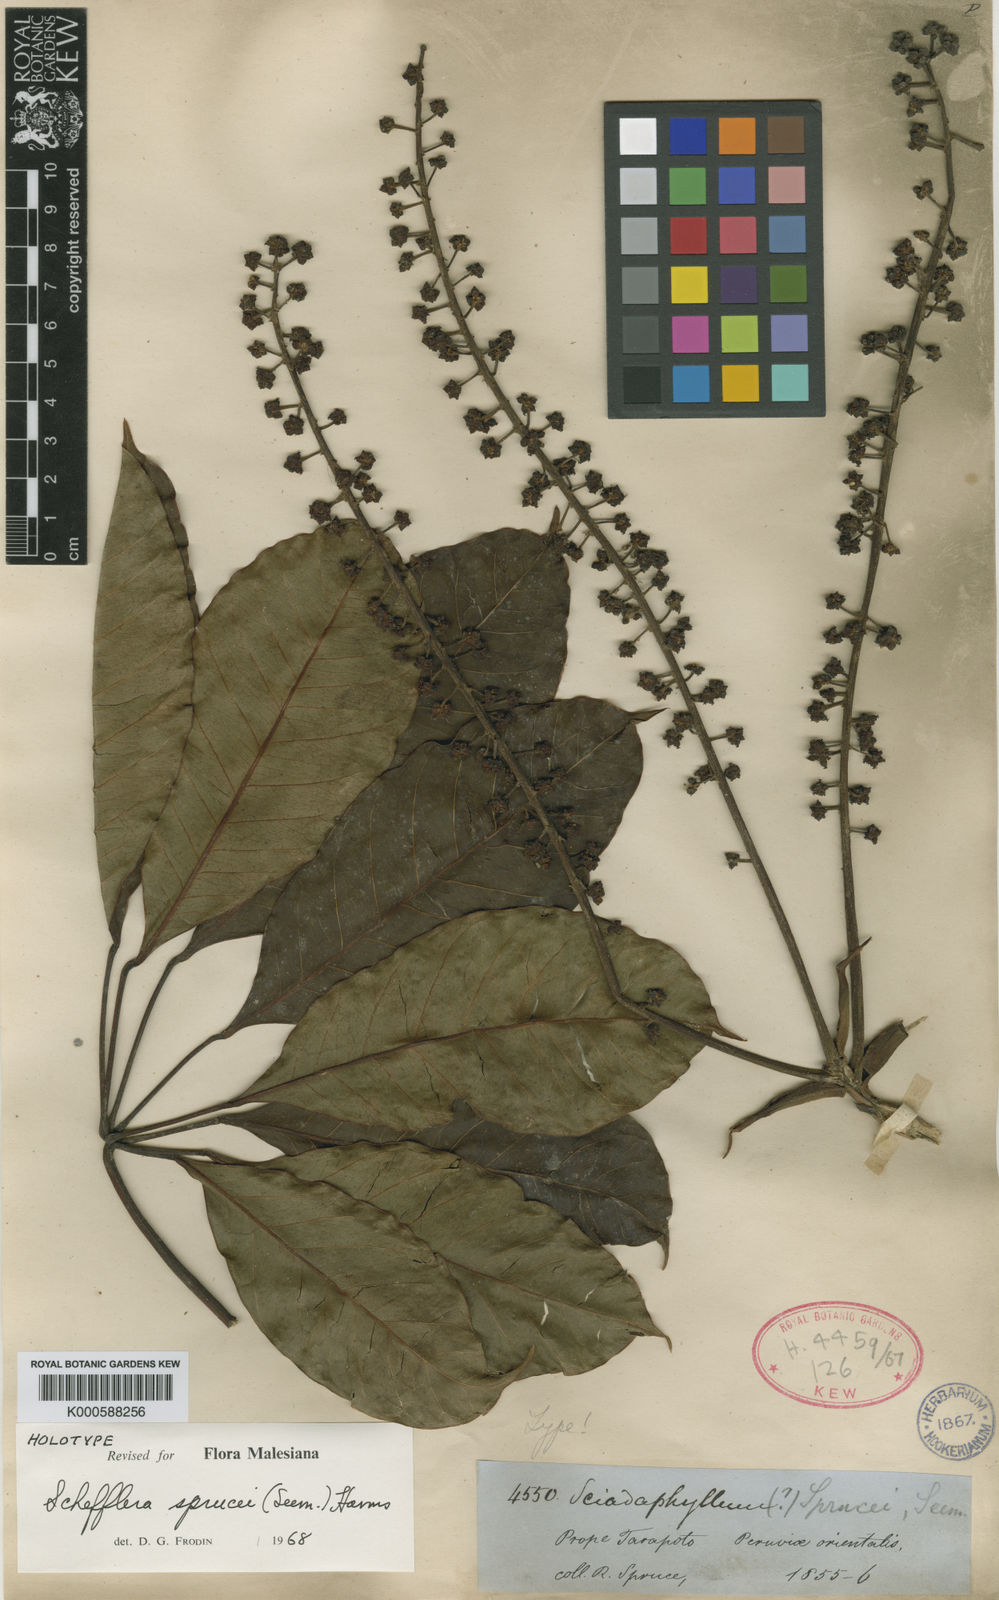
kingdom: Plantae
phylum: Tracheophyta
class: Magnoliopsida
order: Apiales
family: Araliaceae
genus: Sciodaphyllum
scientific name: Sciodaphyllum sprucei
